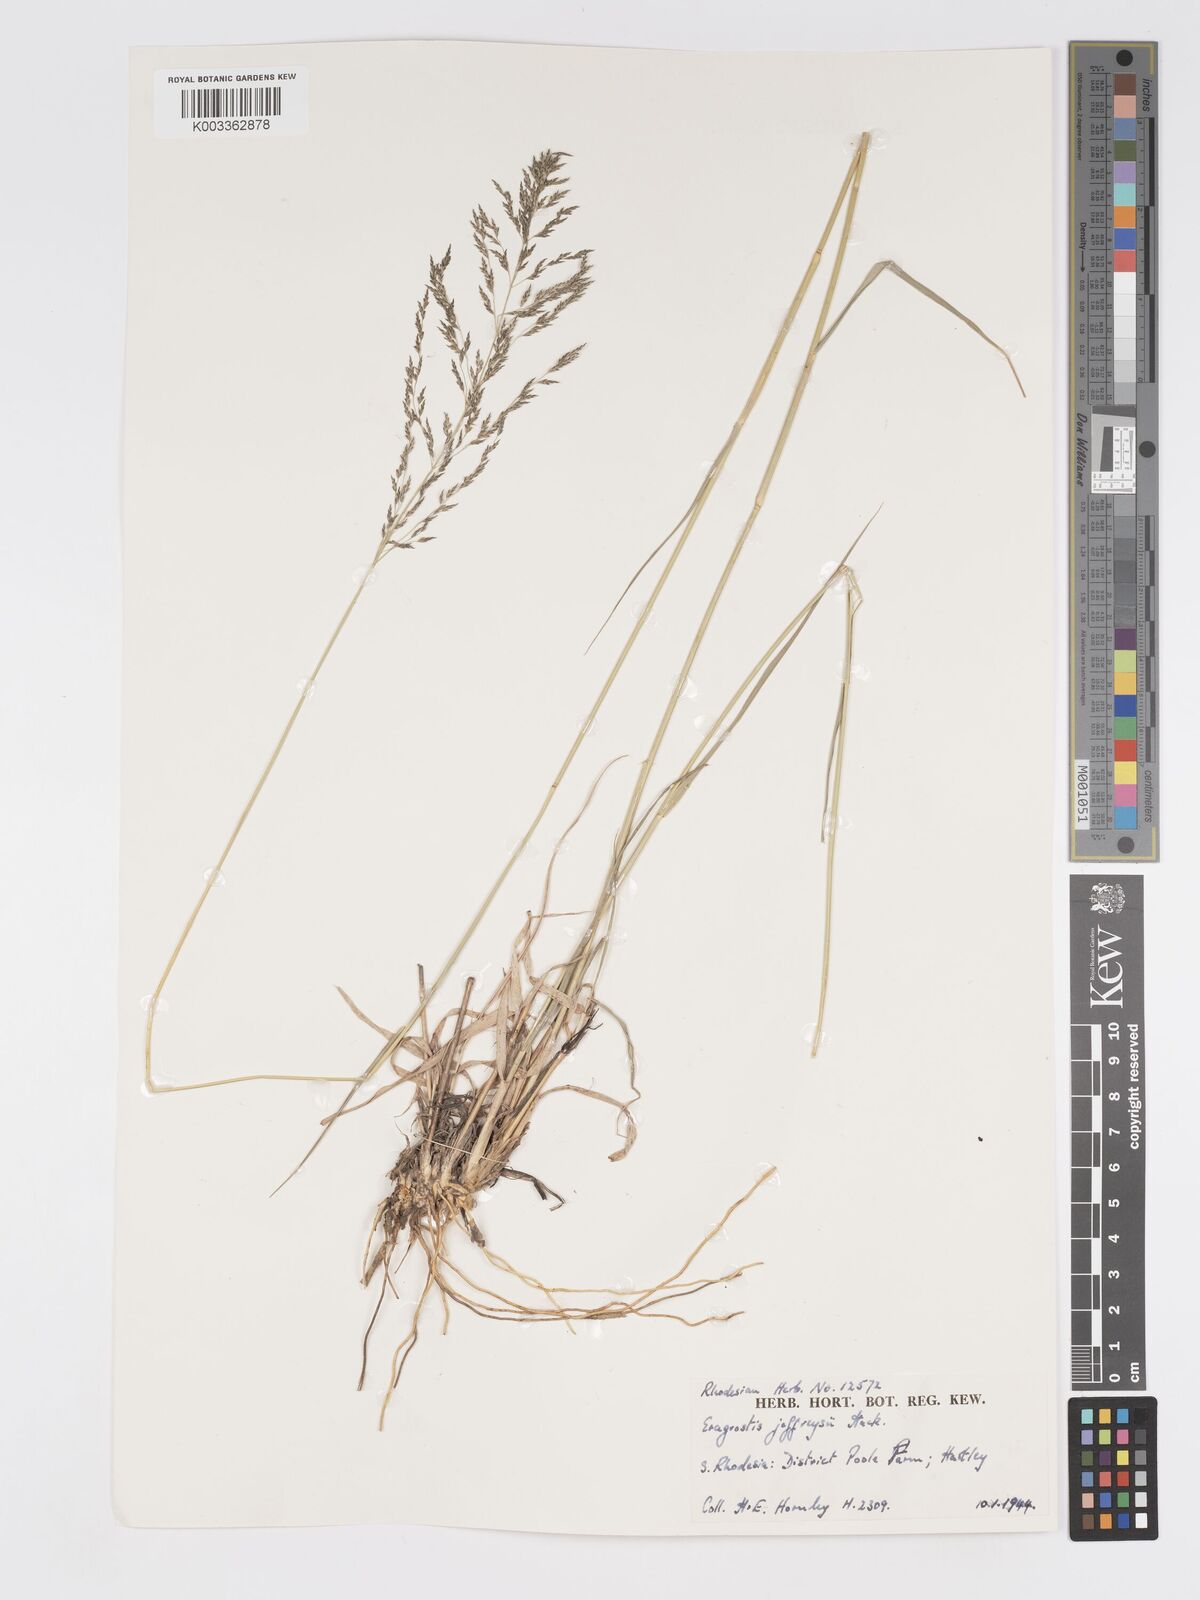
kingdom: Plantae
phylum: Tracheophyta
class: Liliopsida
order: Poales
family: Poaceae
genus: Eragrostis
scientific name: Eragrostis cylindriflora
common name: Cylinderflower lovegrass
